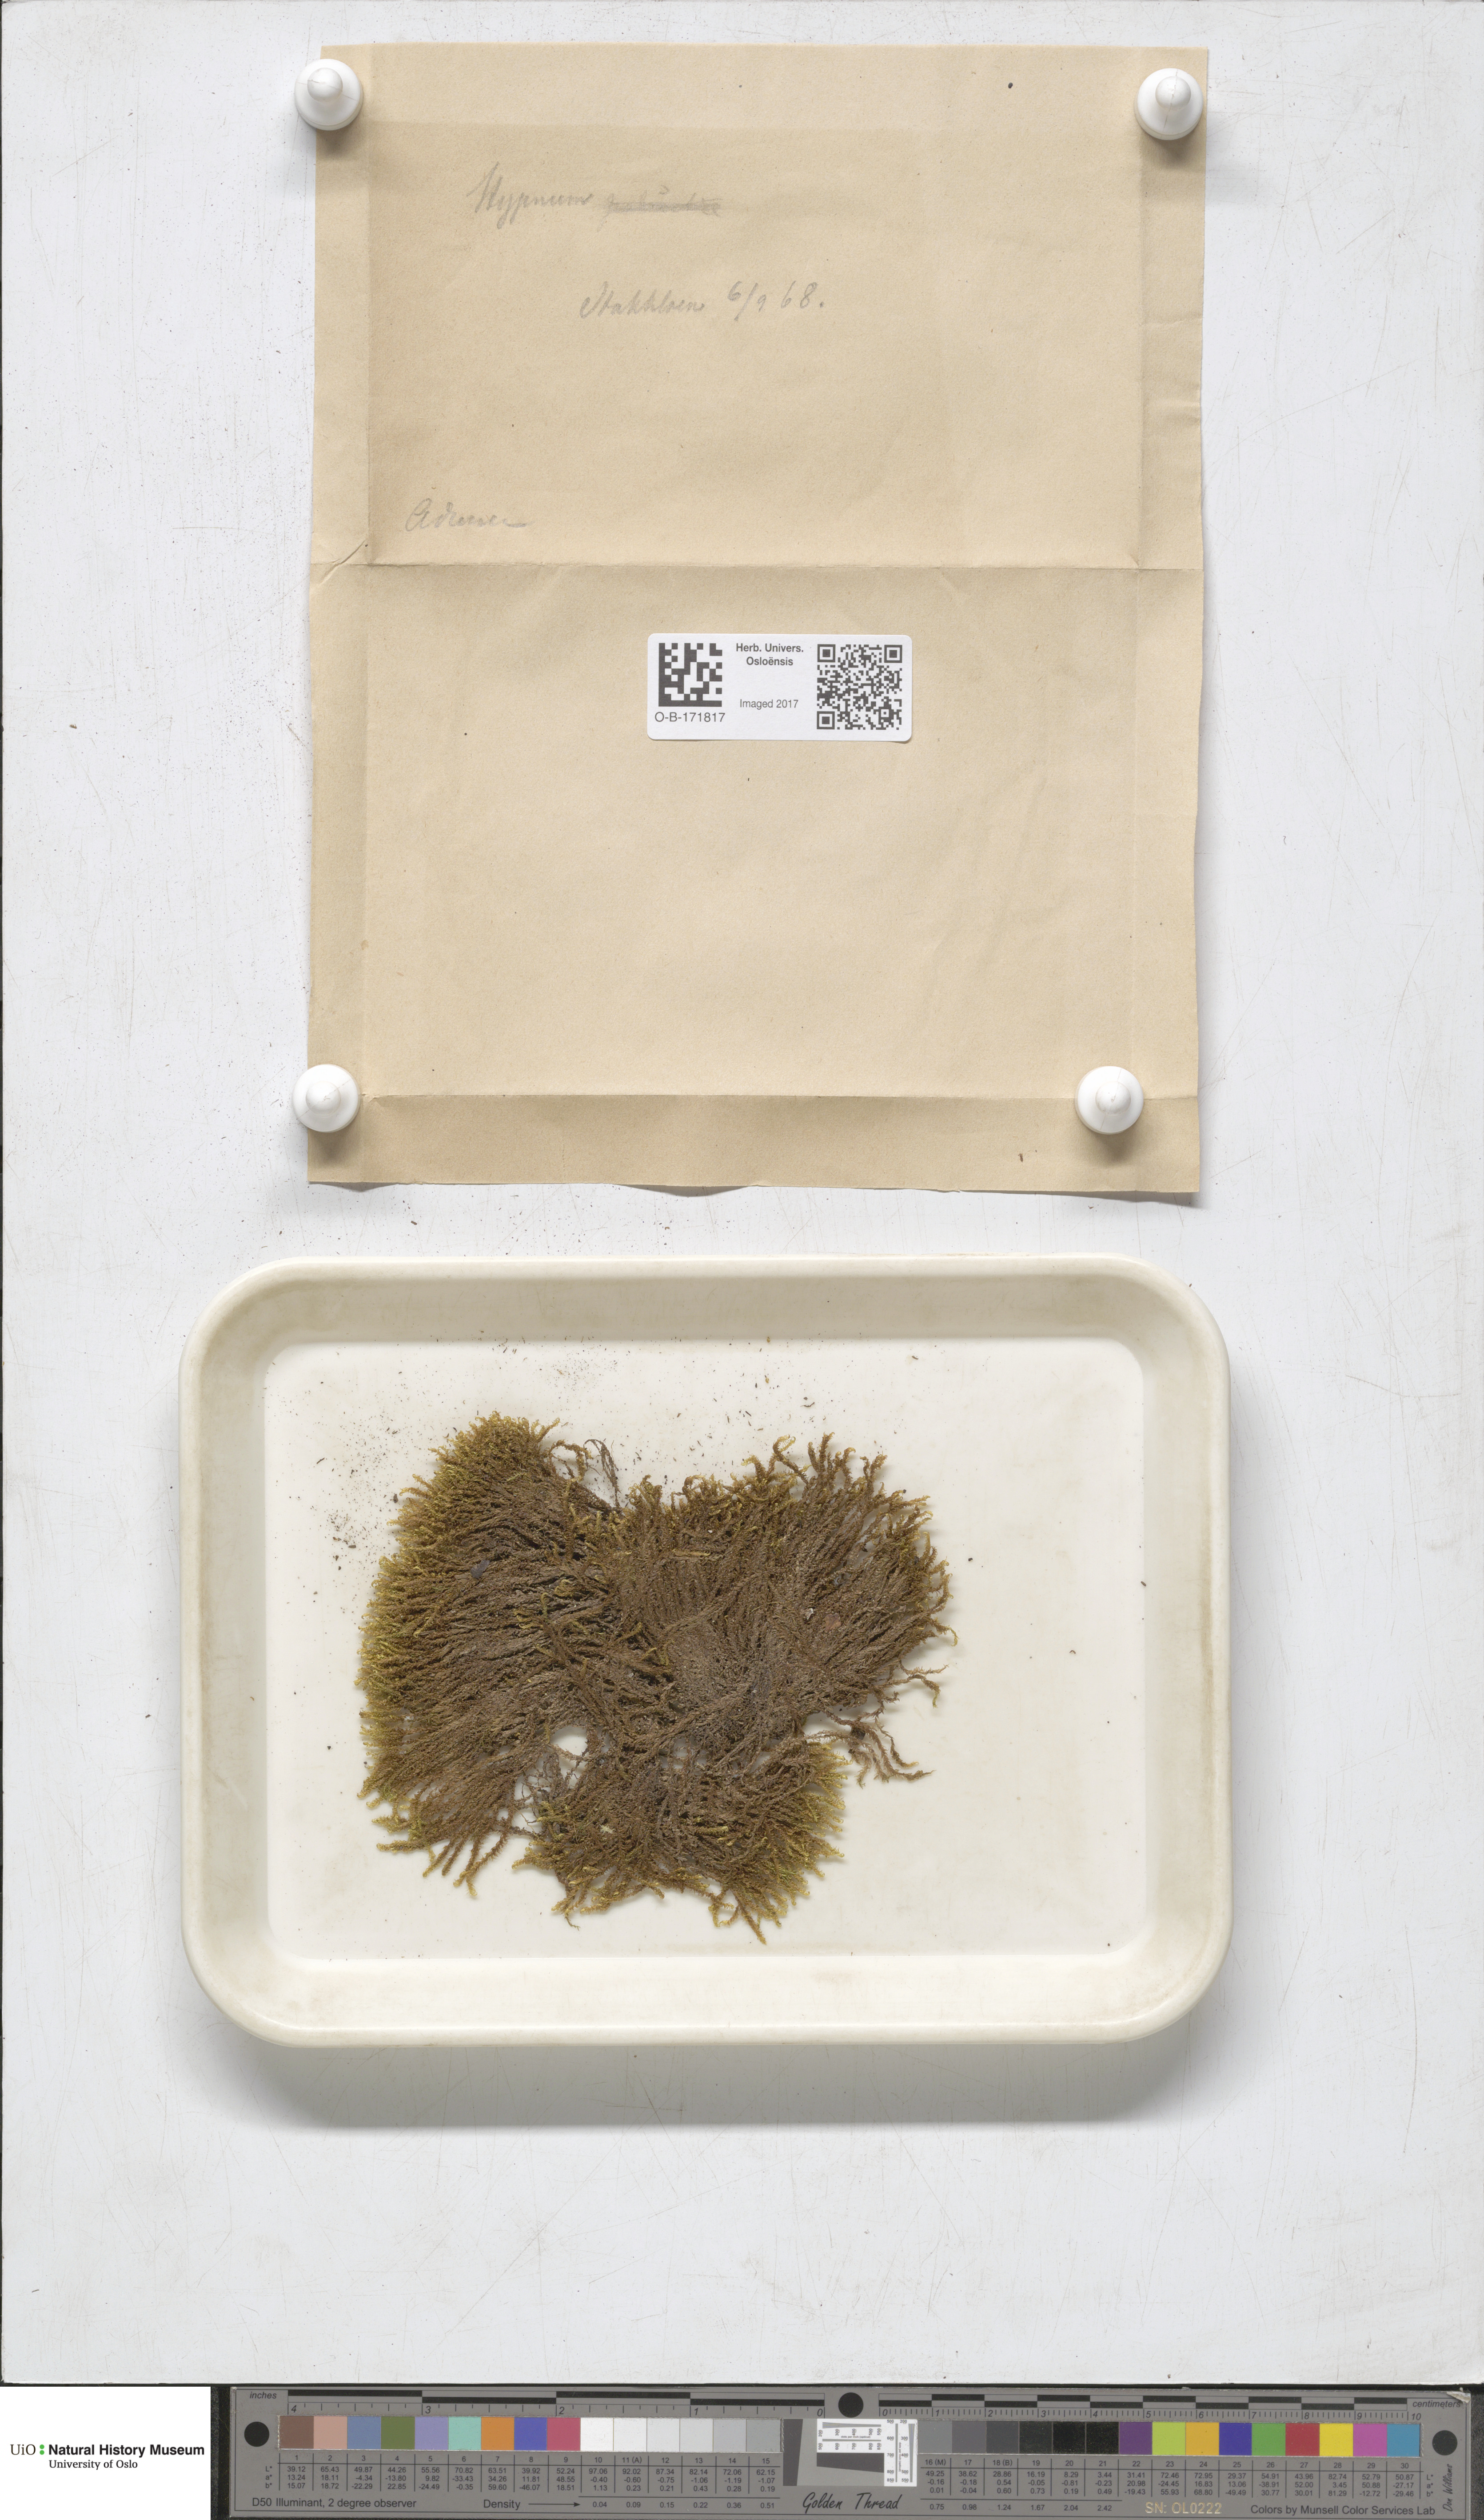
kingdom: Plantae
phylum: Bryophyta
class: Bryopsida
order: Hypnales
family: Amblystegiaceae
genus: Drepanocladus
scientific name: Drepanocladus aduncus
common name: Knieff's hook moss
